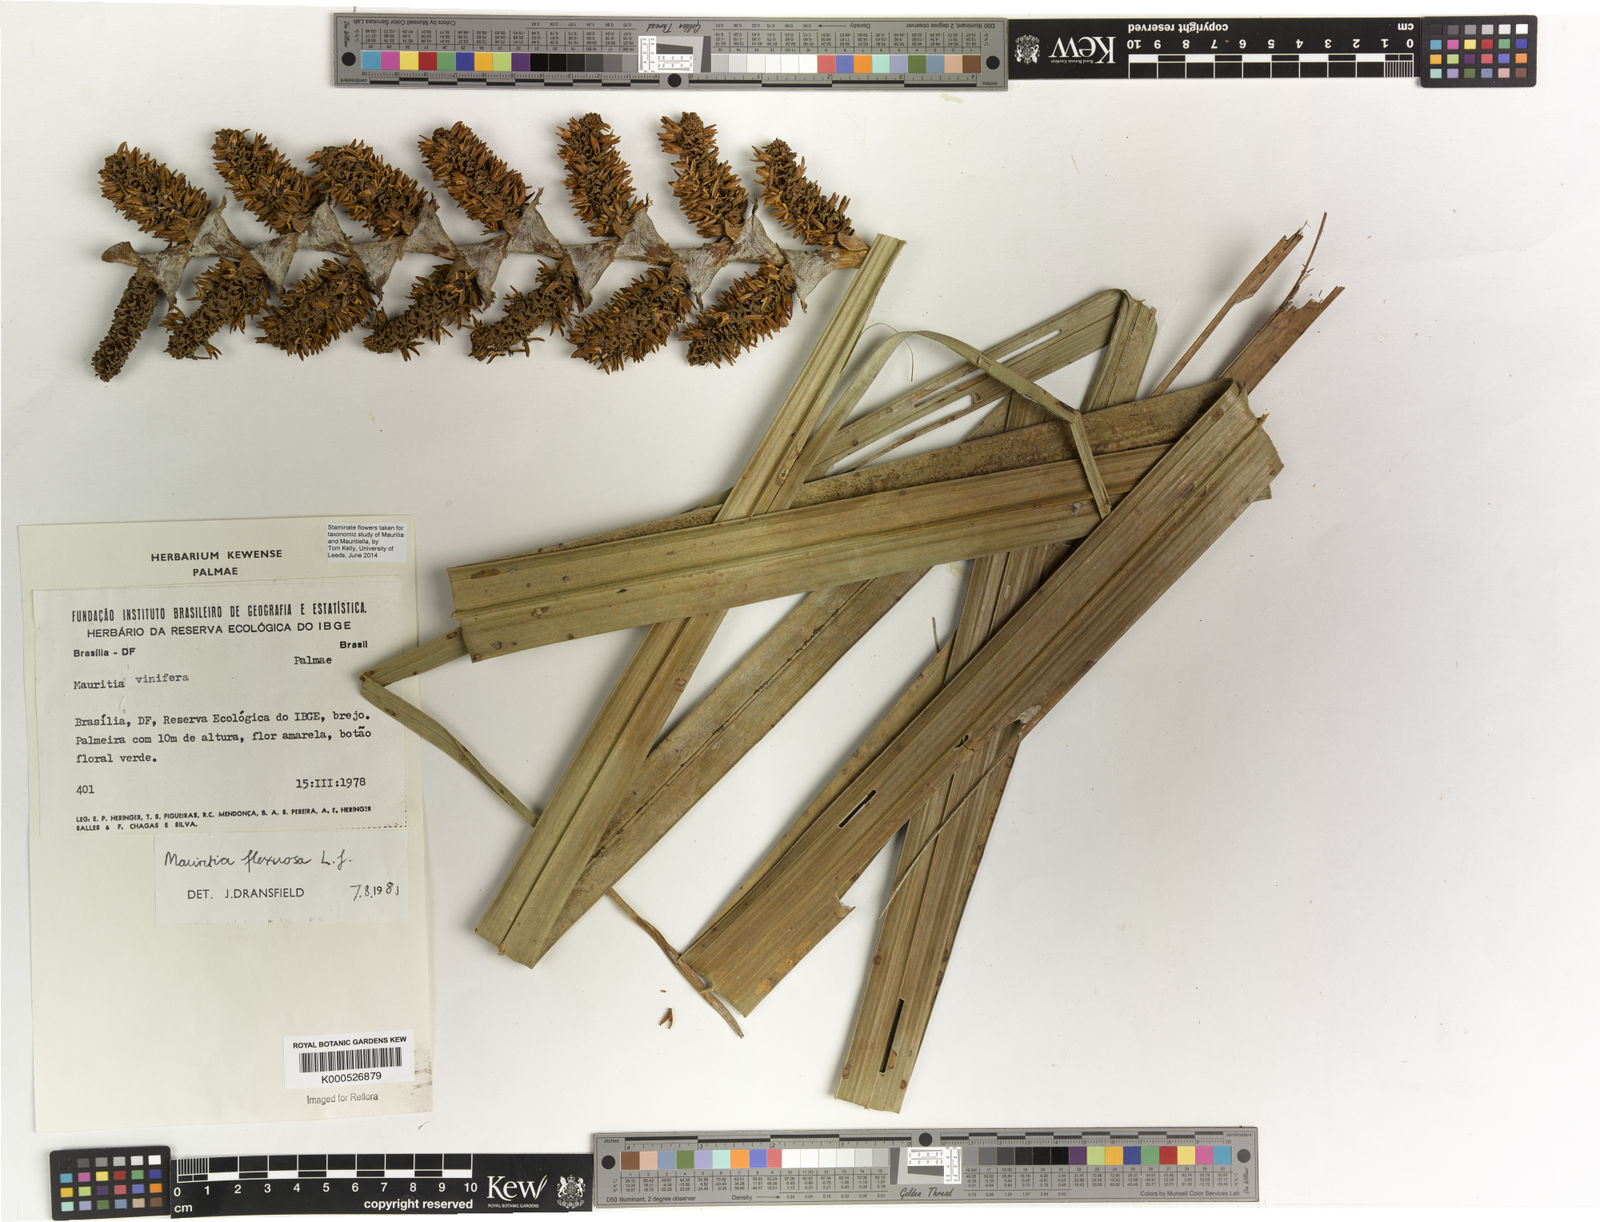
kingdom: Plantae
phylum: Tracheophyta
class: Liliopsida
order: Arecales
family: Arecaceae
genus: Mauritia
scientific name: Mauritia flexuosa
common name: Tree-of-life
